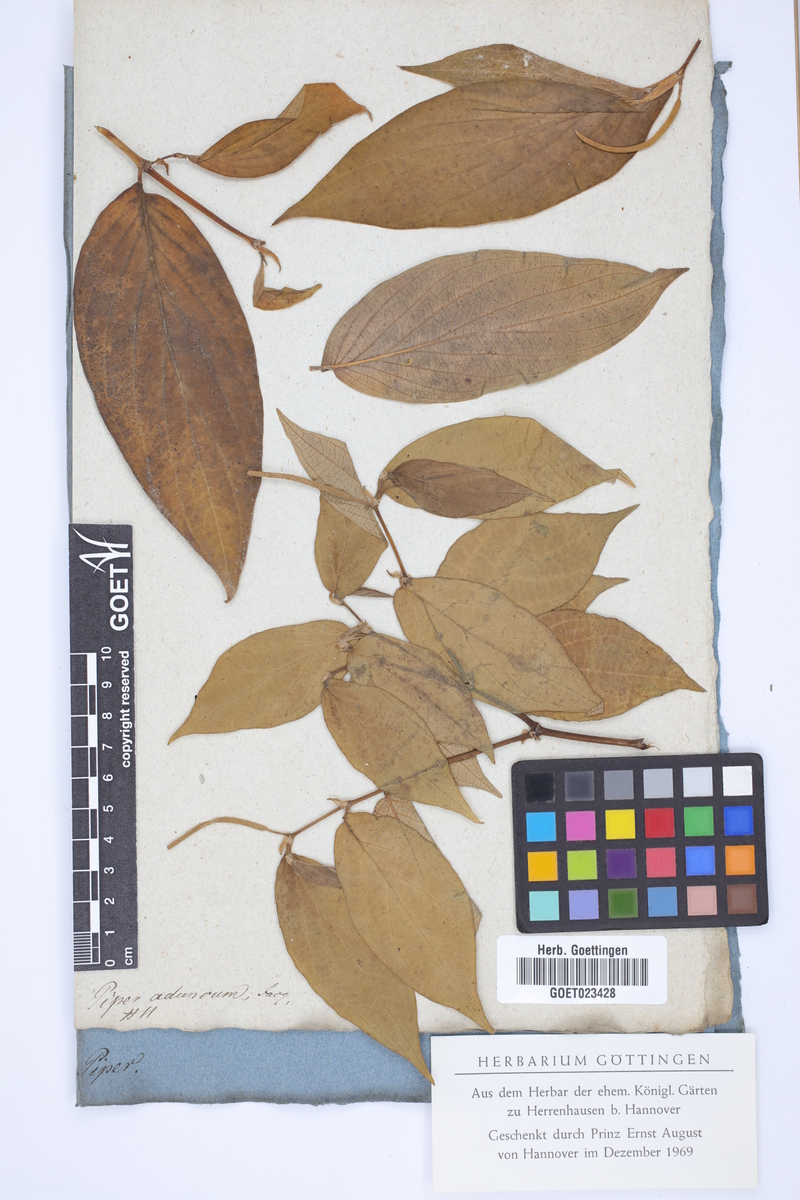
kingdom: Plantae
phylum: Tracheophyta
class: Magnoliopsida
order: Piperales
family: Piperaceae
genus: Piper
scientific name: Piper aduncum
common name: Spiked pepper
